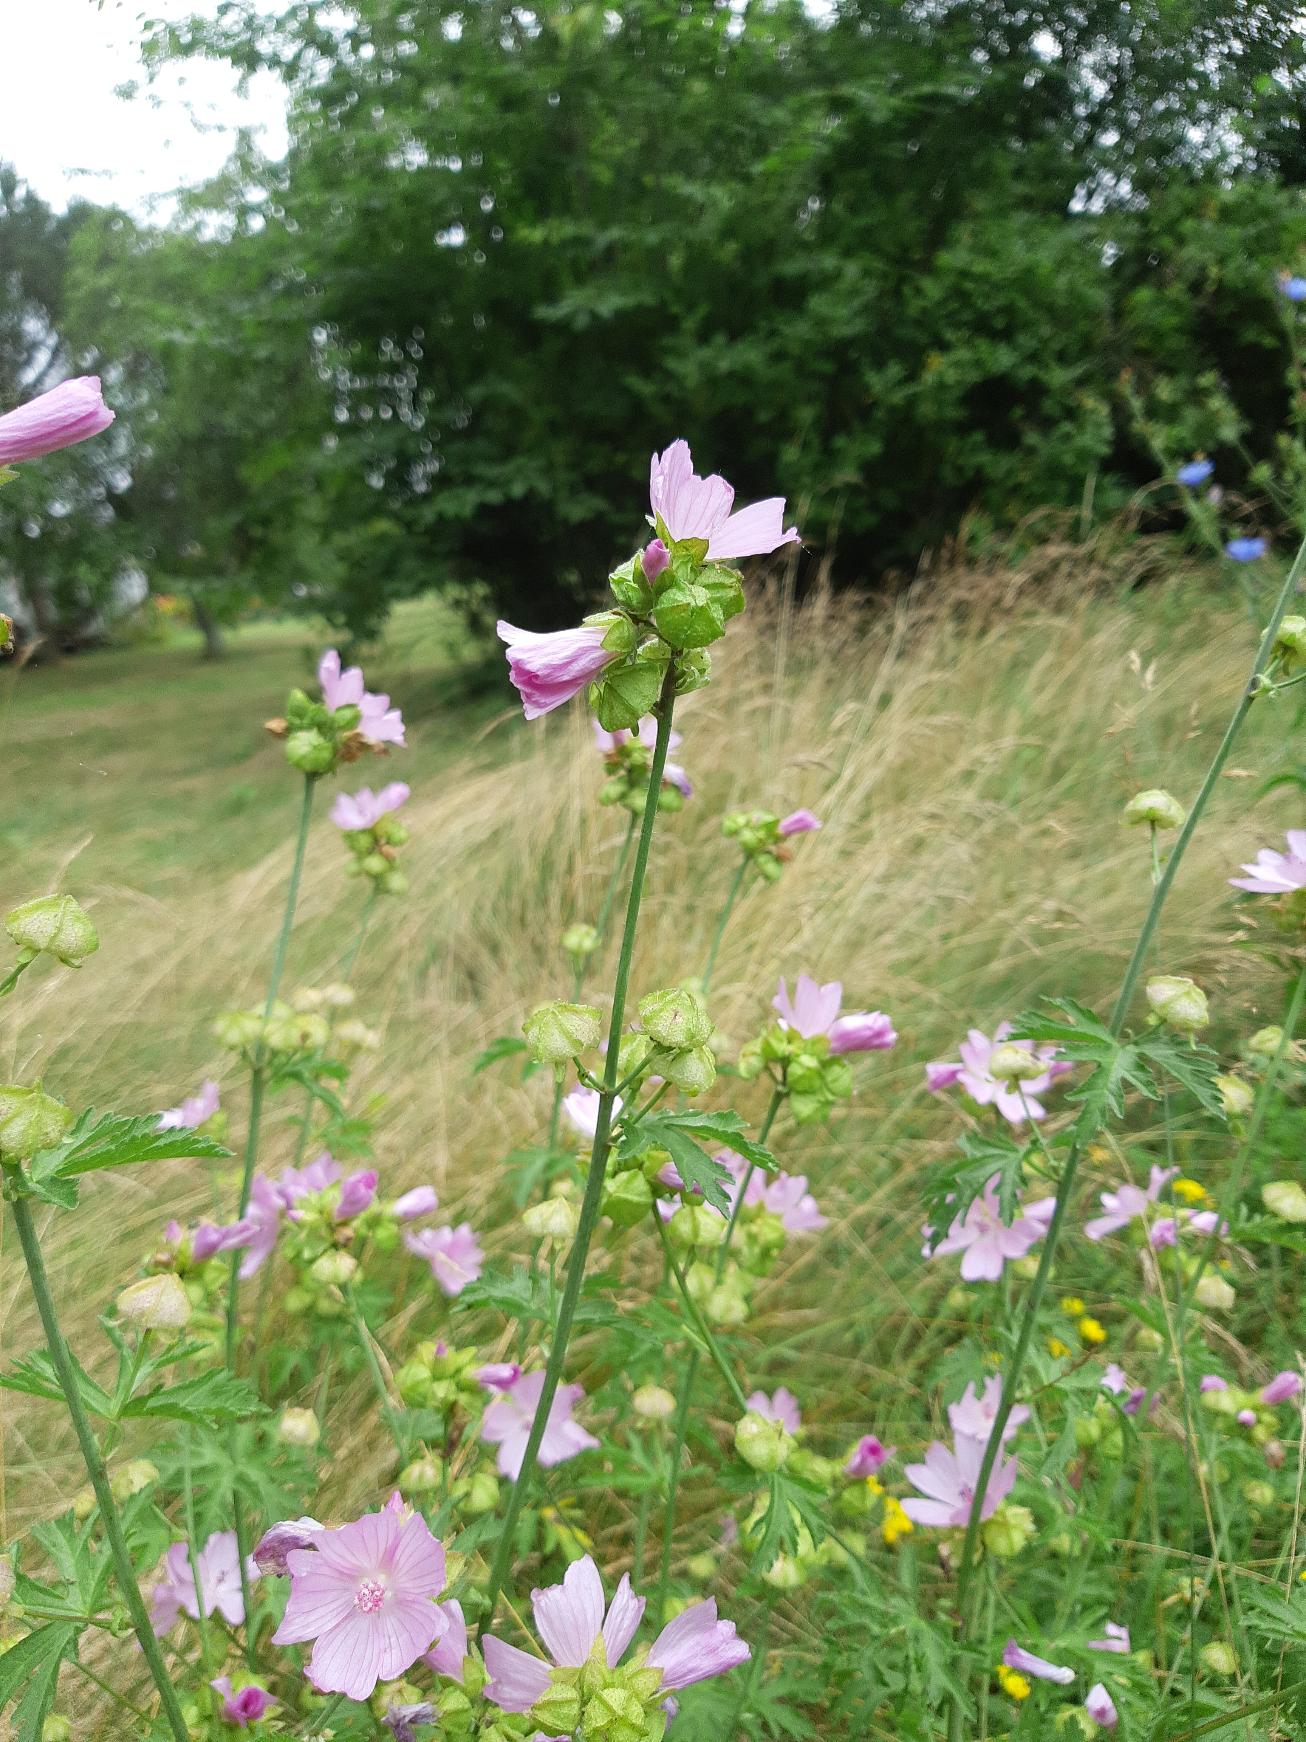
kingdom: Plantae
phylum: Tracheophyta
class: Magnoliopsida
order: Malvales
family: Malvaceae
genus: Malva
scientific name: Malva moschata
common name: Moskus-katost
